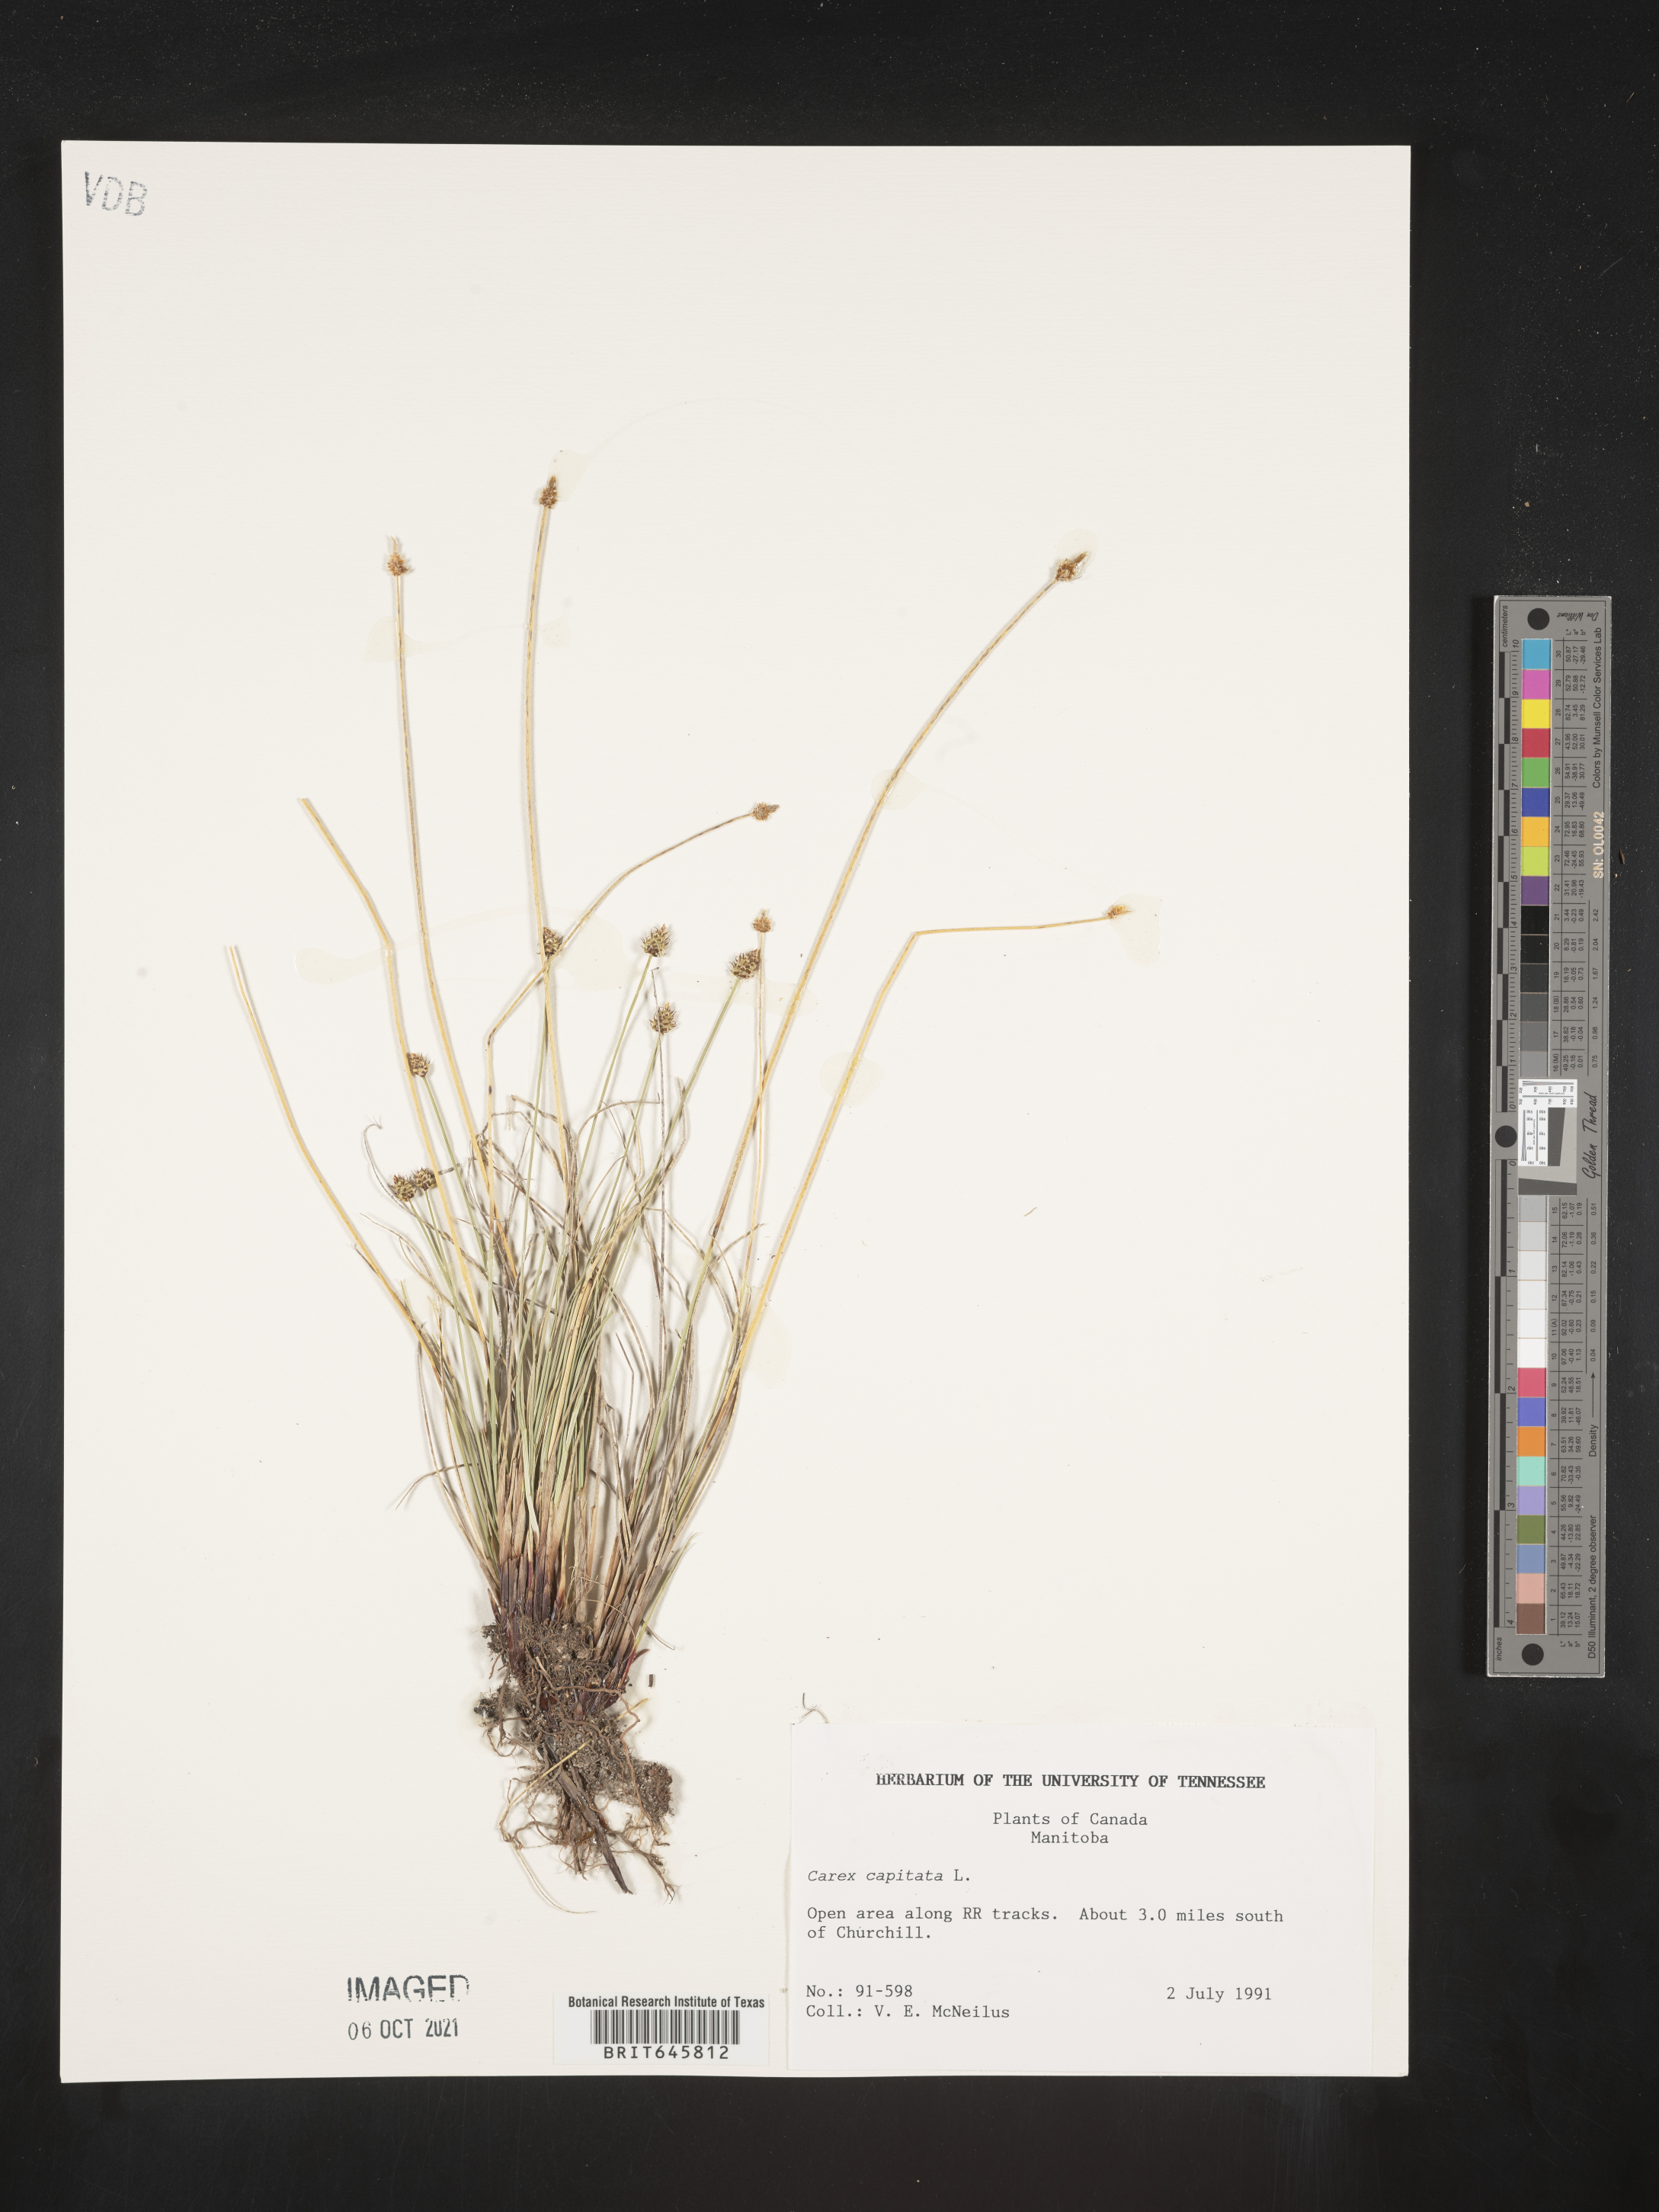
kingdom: Plantae
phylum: Tracheophyta
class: Liliopsida
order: Poales
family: Cyperaceae
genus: Carex
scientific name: Carex capitata
